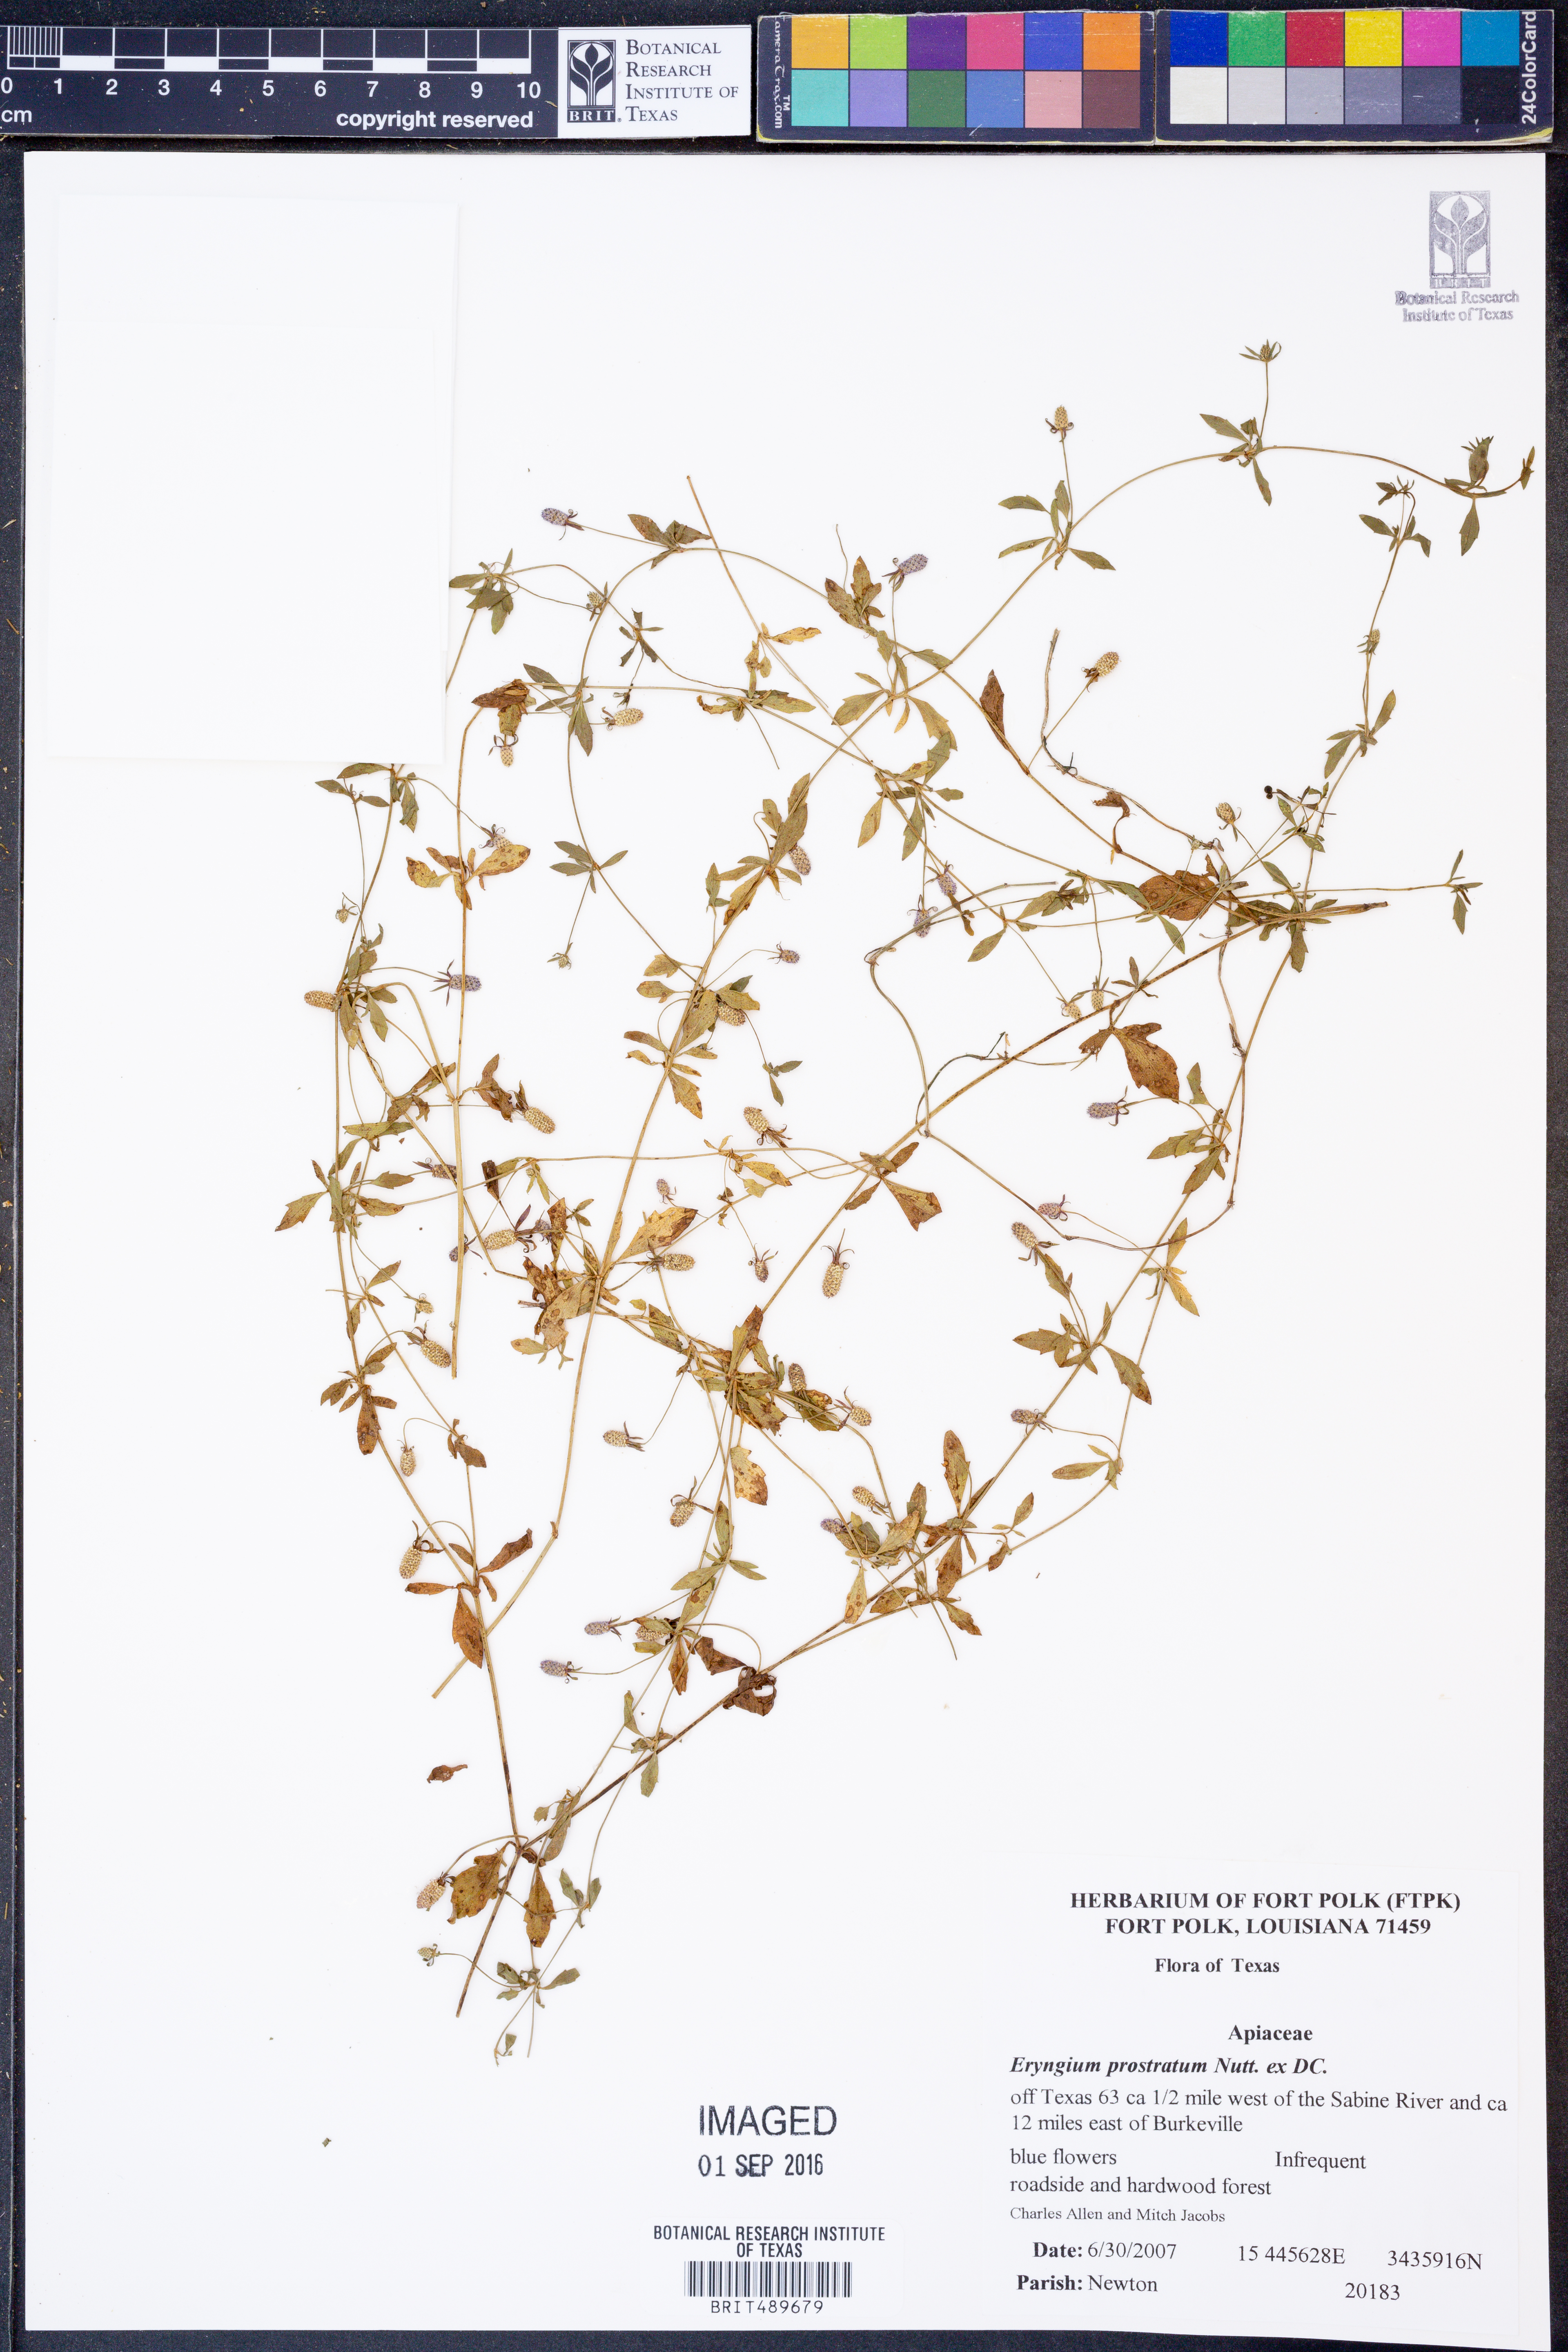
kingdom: Plantae
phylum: Tracheophyta
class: Magnoliopsida
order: Apiales
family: Apiaceae
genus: Eryngium
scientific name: Eryngium prostratum
